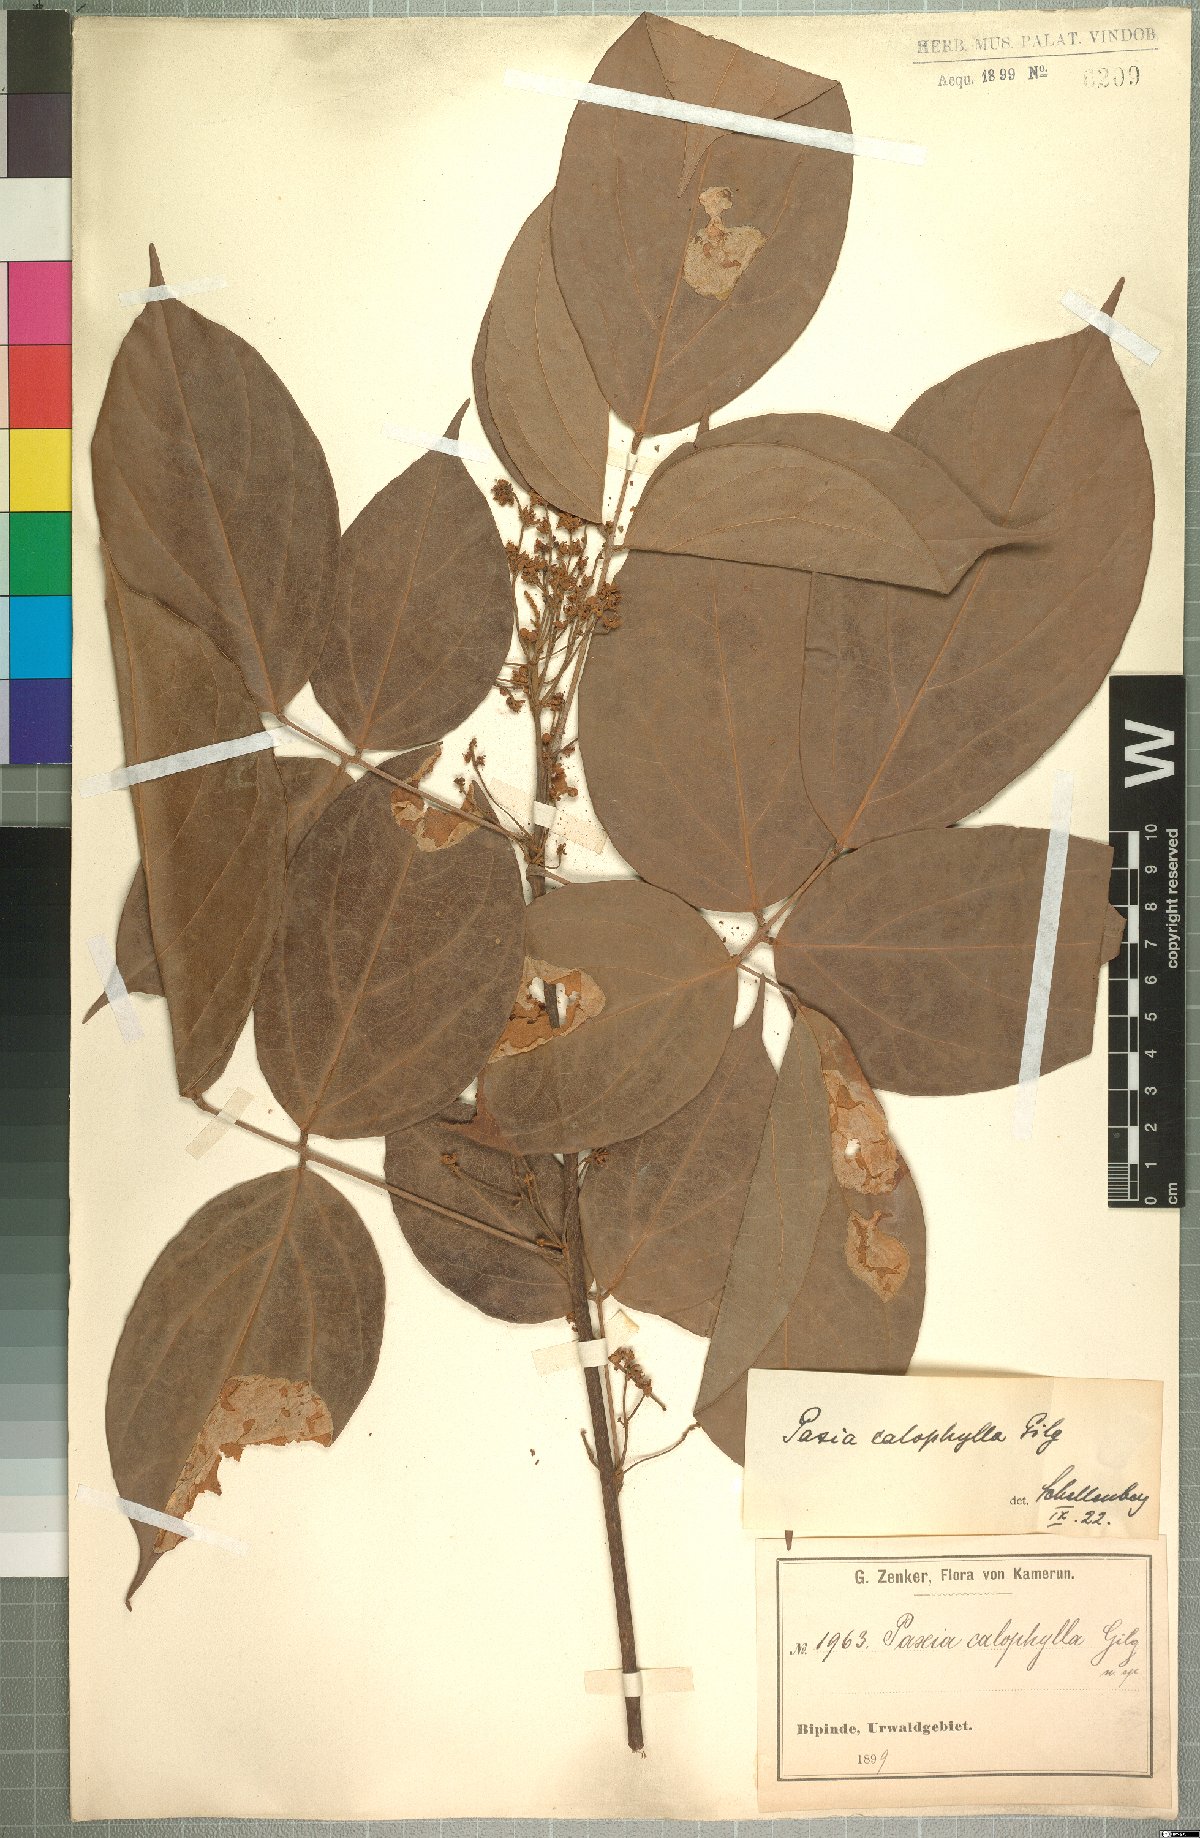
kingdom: Plantae
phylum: Tracheophyta
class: Magnoliopsida
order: Oxalidales
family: Connaraceae
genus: Rourea
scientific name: Rourea calophylla
